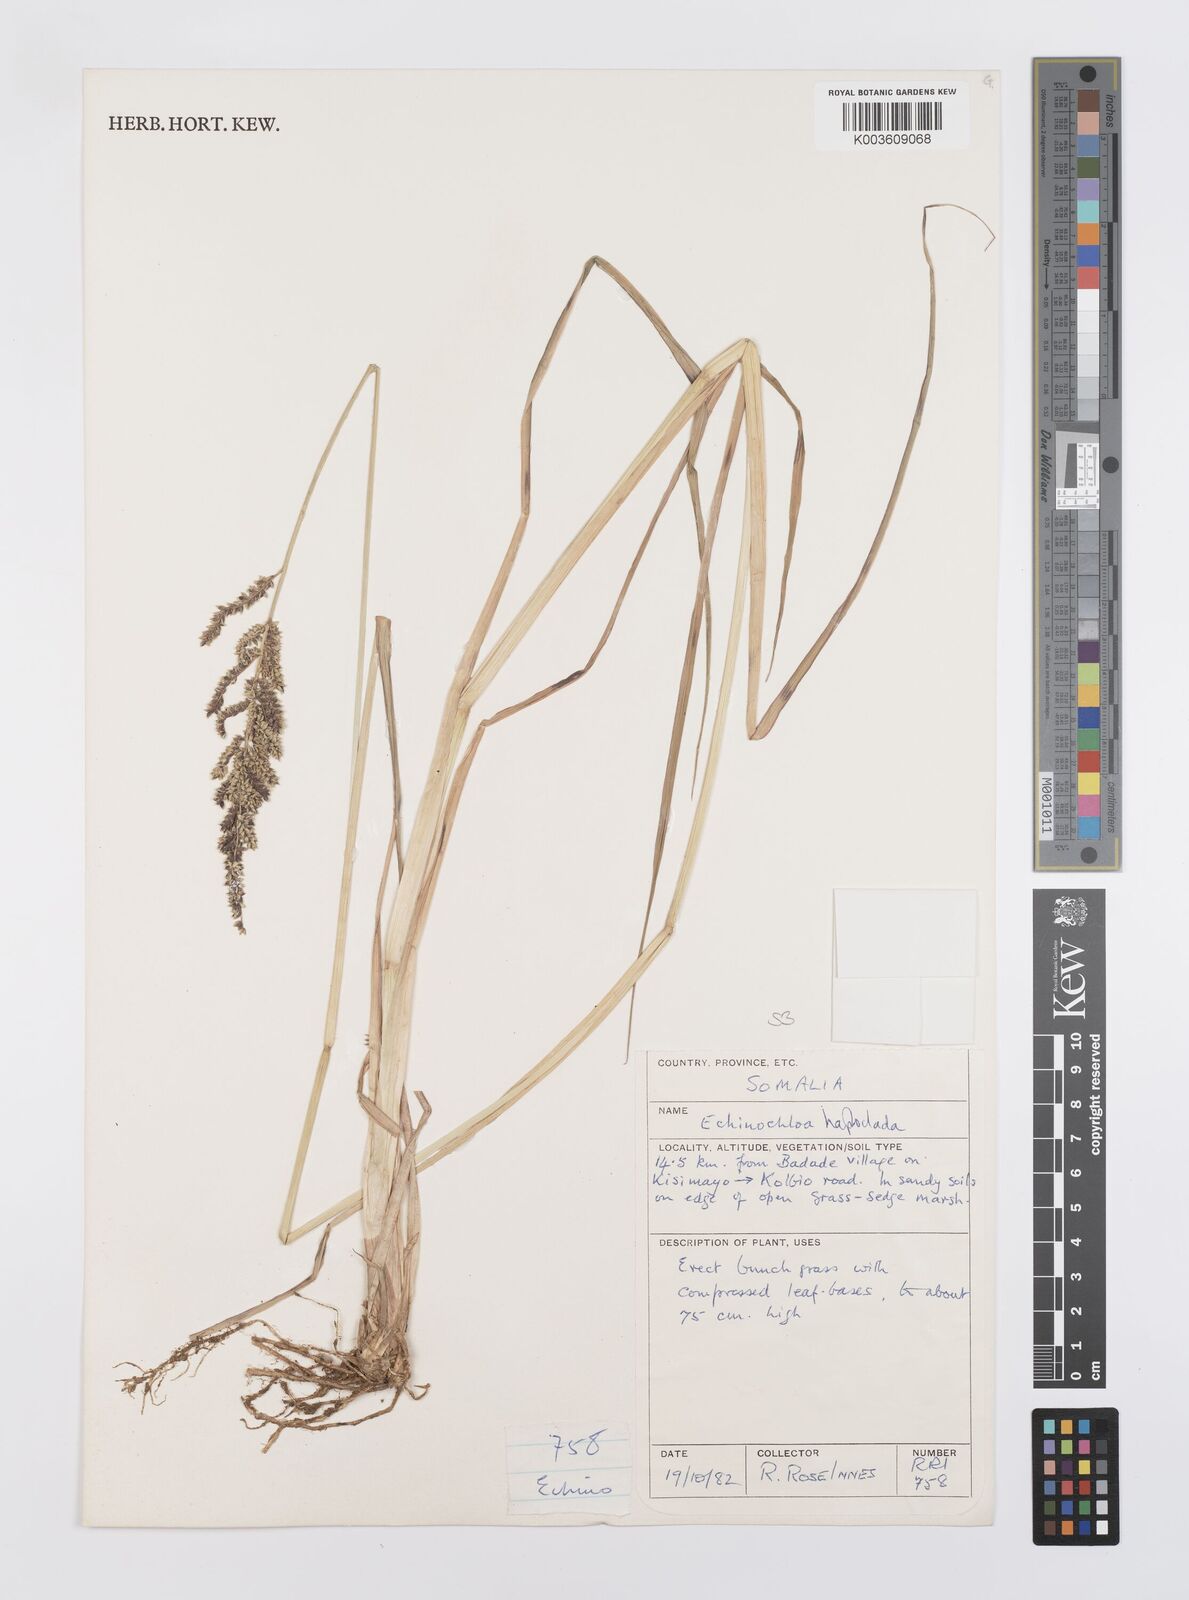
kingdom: Plantae
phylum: Tracheophyta
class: Liliopsida
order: Poales
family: Poaceae
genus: Echinochloa
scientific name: Echinochloa haploclada
